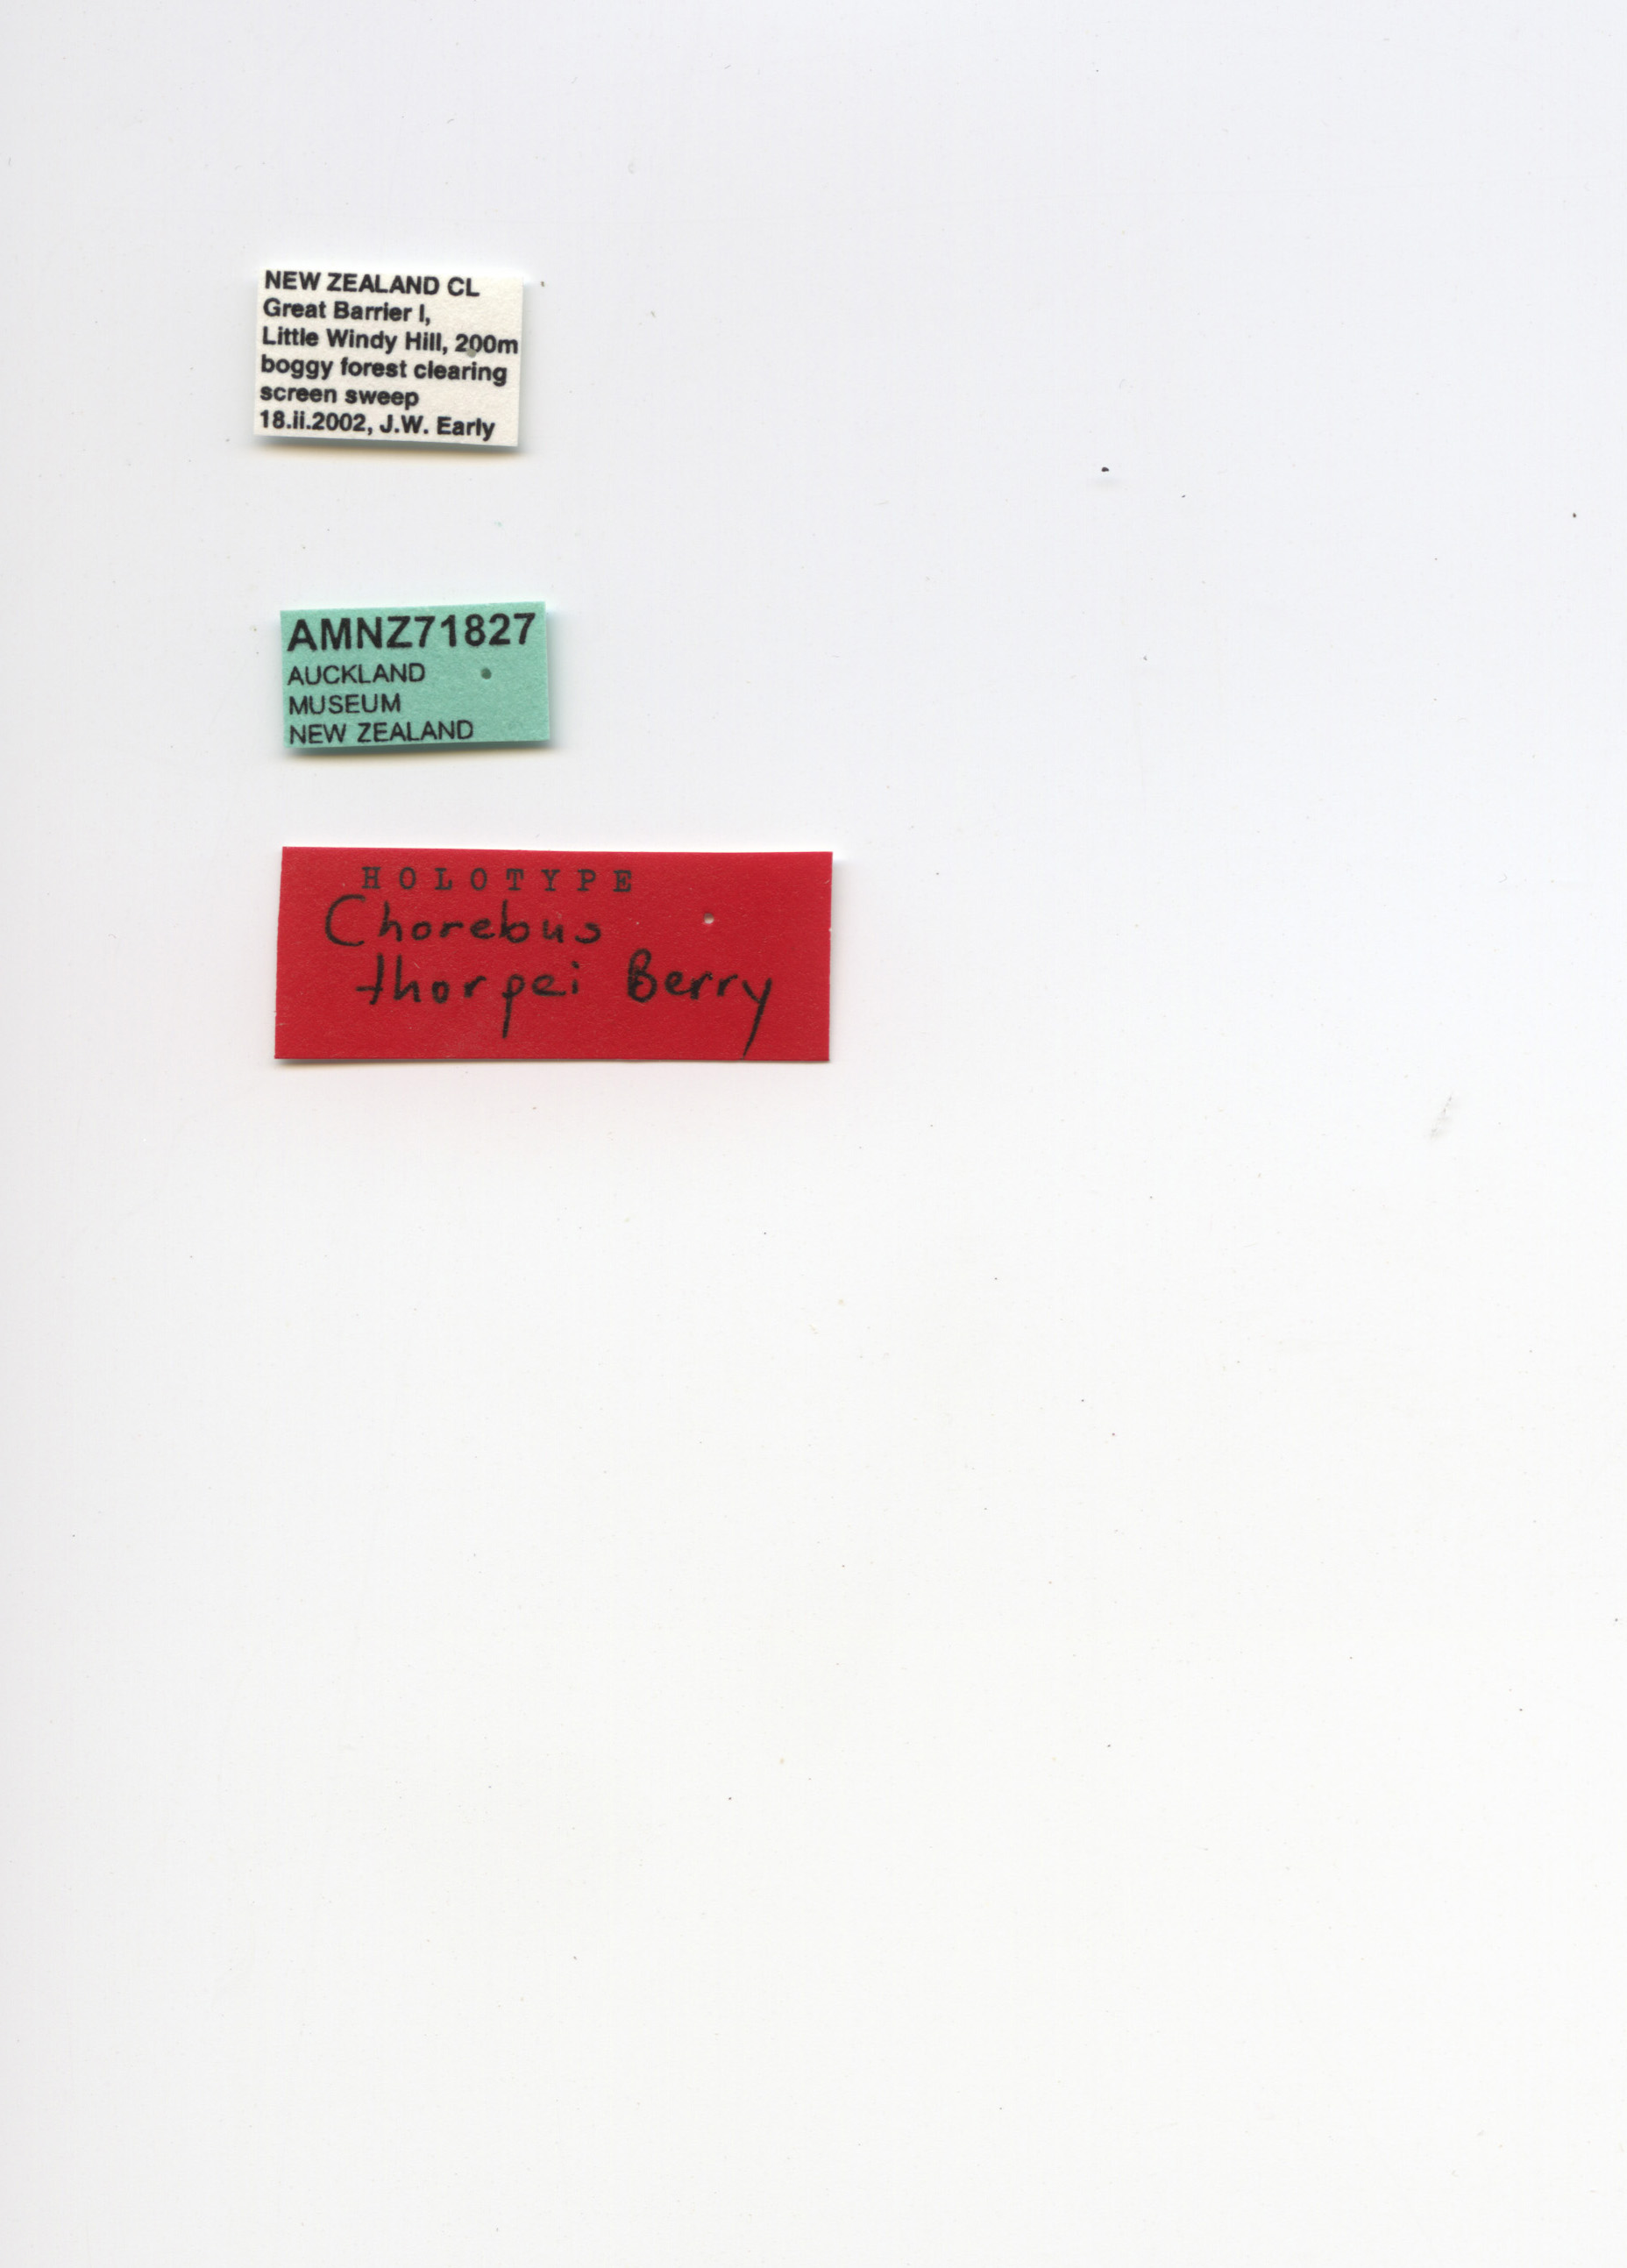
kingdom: Animalia
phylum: Arthropoda
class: Insecta
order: Hymenoptera
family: Braconidae
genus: Chorebus
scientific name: Chorebus thorpei
